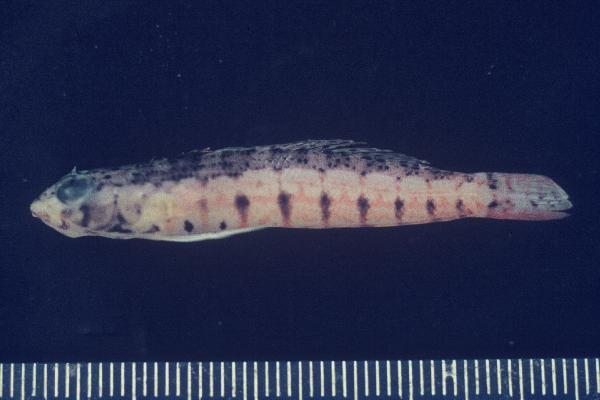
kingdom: Animalia
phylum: Chordata
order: Perciformes
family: Pinguipedidae
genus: Parapercis
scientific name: Parapercis punctulata
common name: Spotted sandperch
